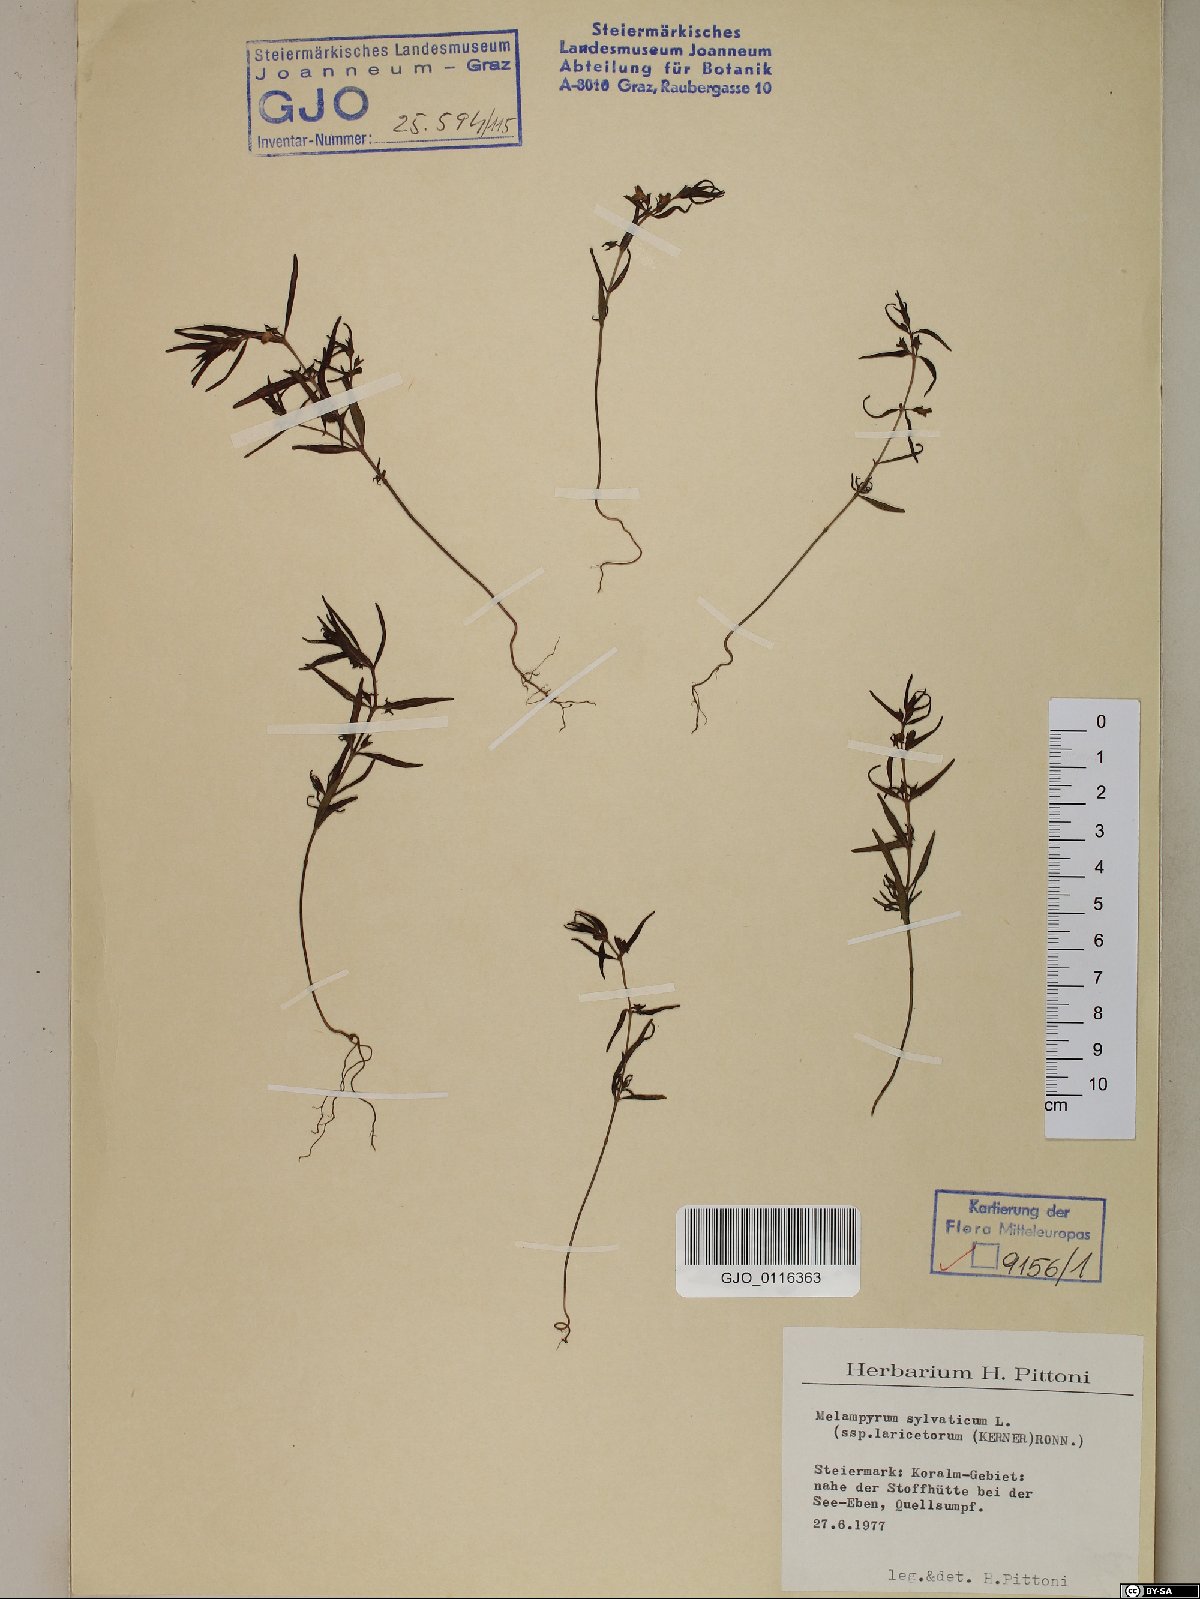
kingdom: Plantae
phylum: Tracheophyta
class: Magnoliopsida
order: Lamiales
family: Orobanchaceae
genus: Melampyrum
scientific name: Melampyrum sylvaticum
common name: Small cow-wheat
